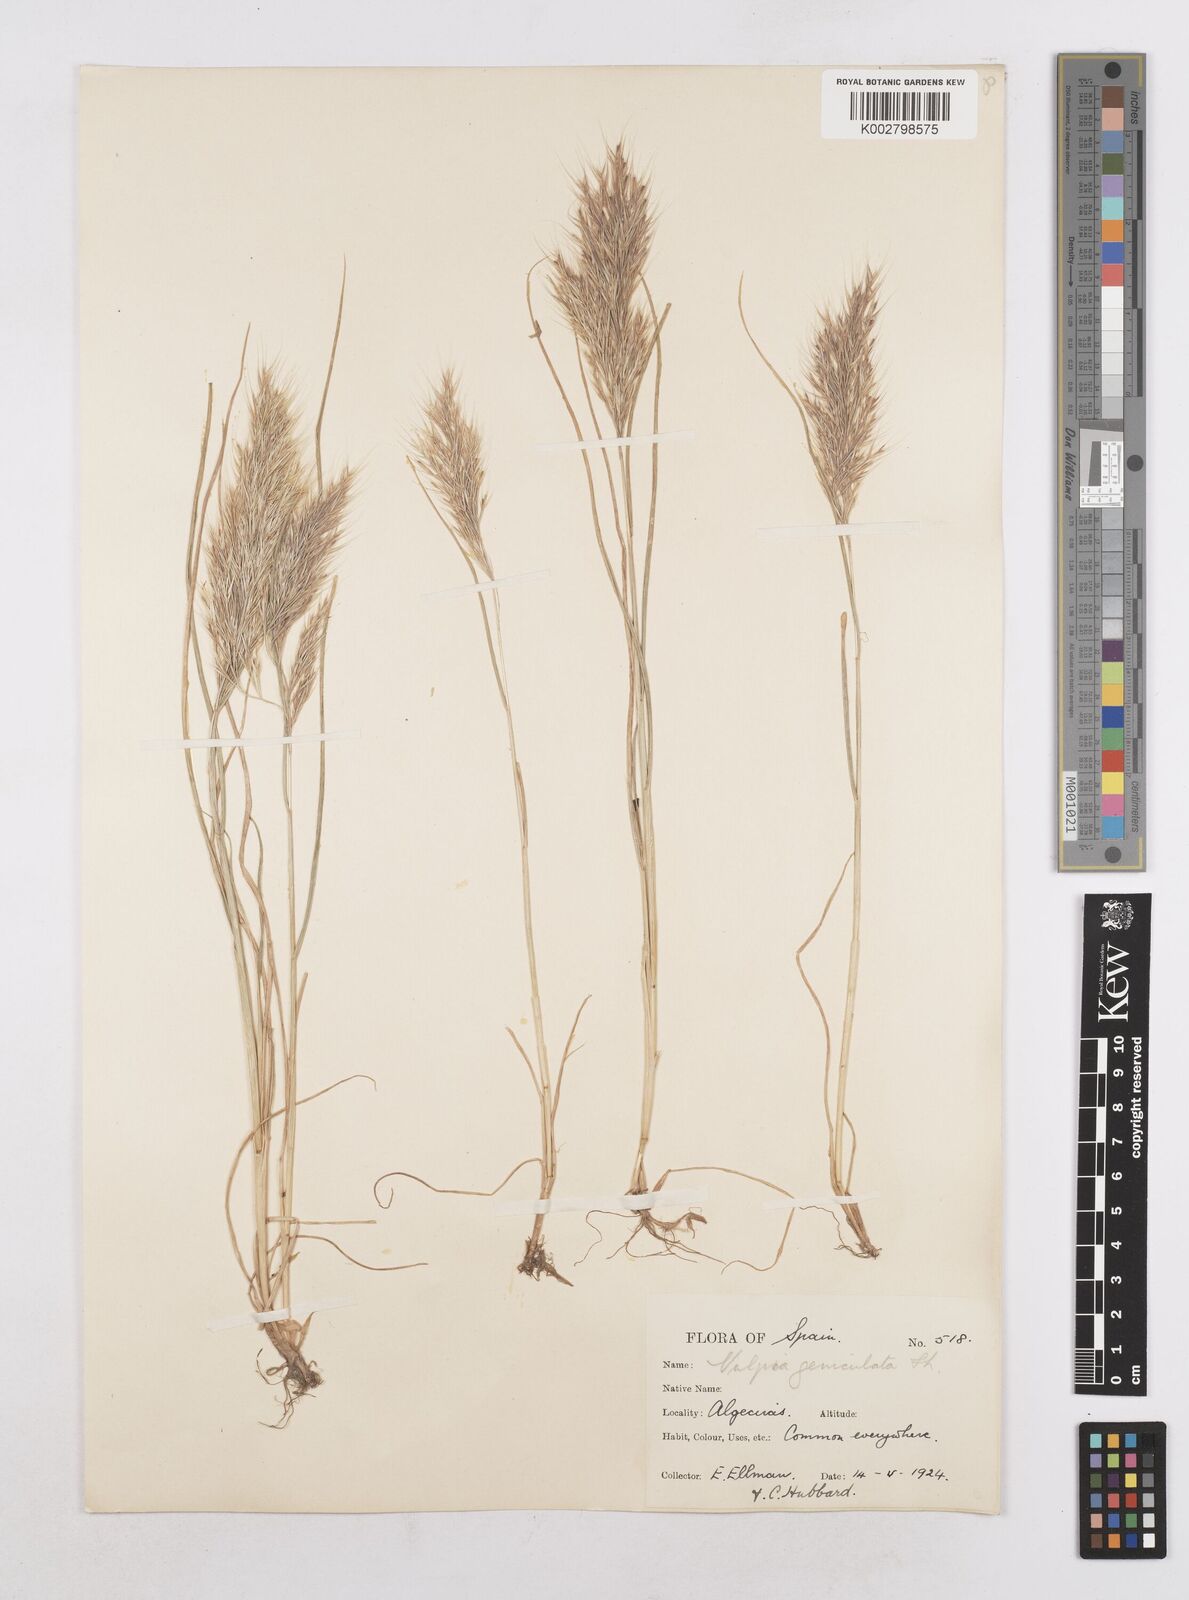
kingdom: Plantae
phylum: Tracheophyta
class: Liliopsida
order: Poales
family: Poaceae
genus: Festuca
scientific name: Festuca geniculata
